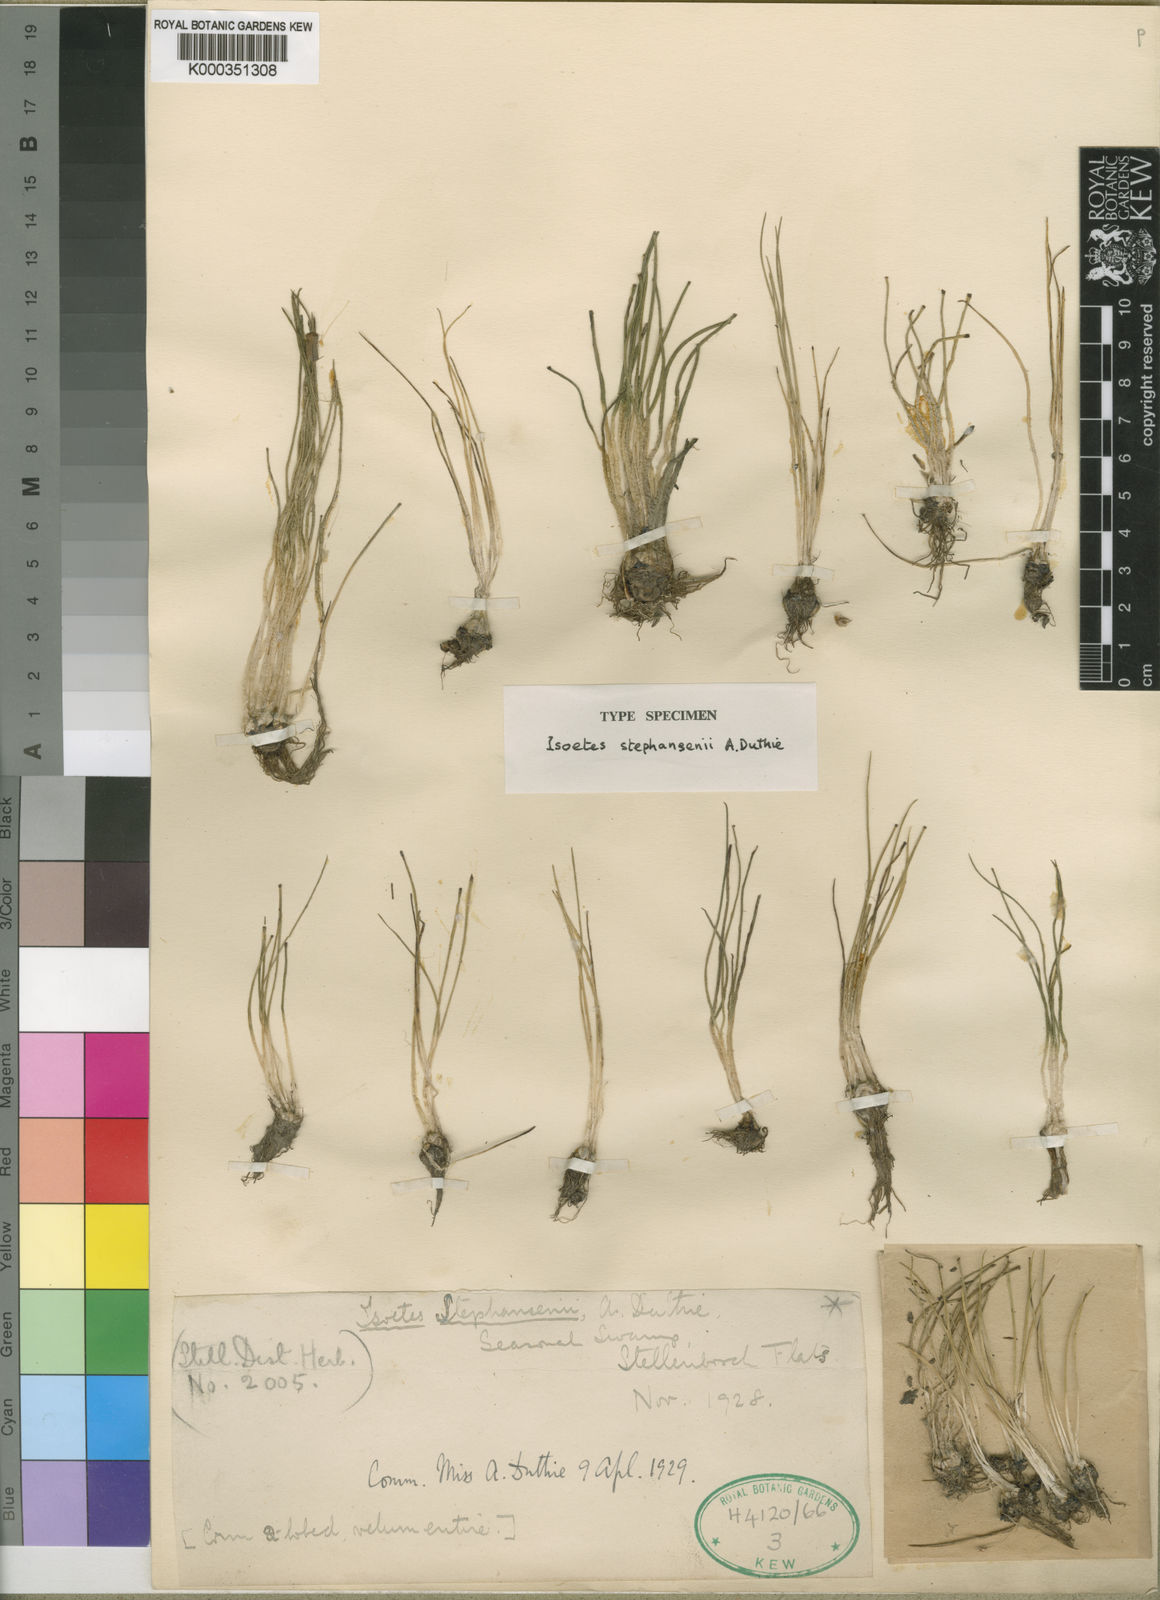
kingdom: Plantae
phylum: Tracheophyta
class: Lycopodiopsida
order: Isoetales
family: Isoetaceae
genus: Isoetes
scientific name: Isoetes stephanseniae
